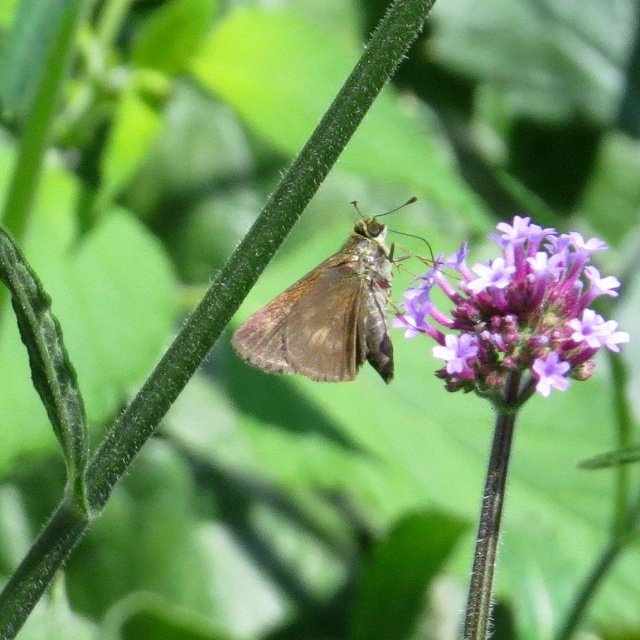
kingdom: Animalia
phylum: Arthropoda
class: Insecta
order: Lepidoptera
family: Hesperiidae
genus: Polites
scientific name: Polites egeremet
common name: Northern Broken-Dash
